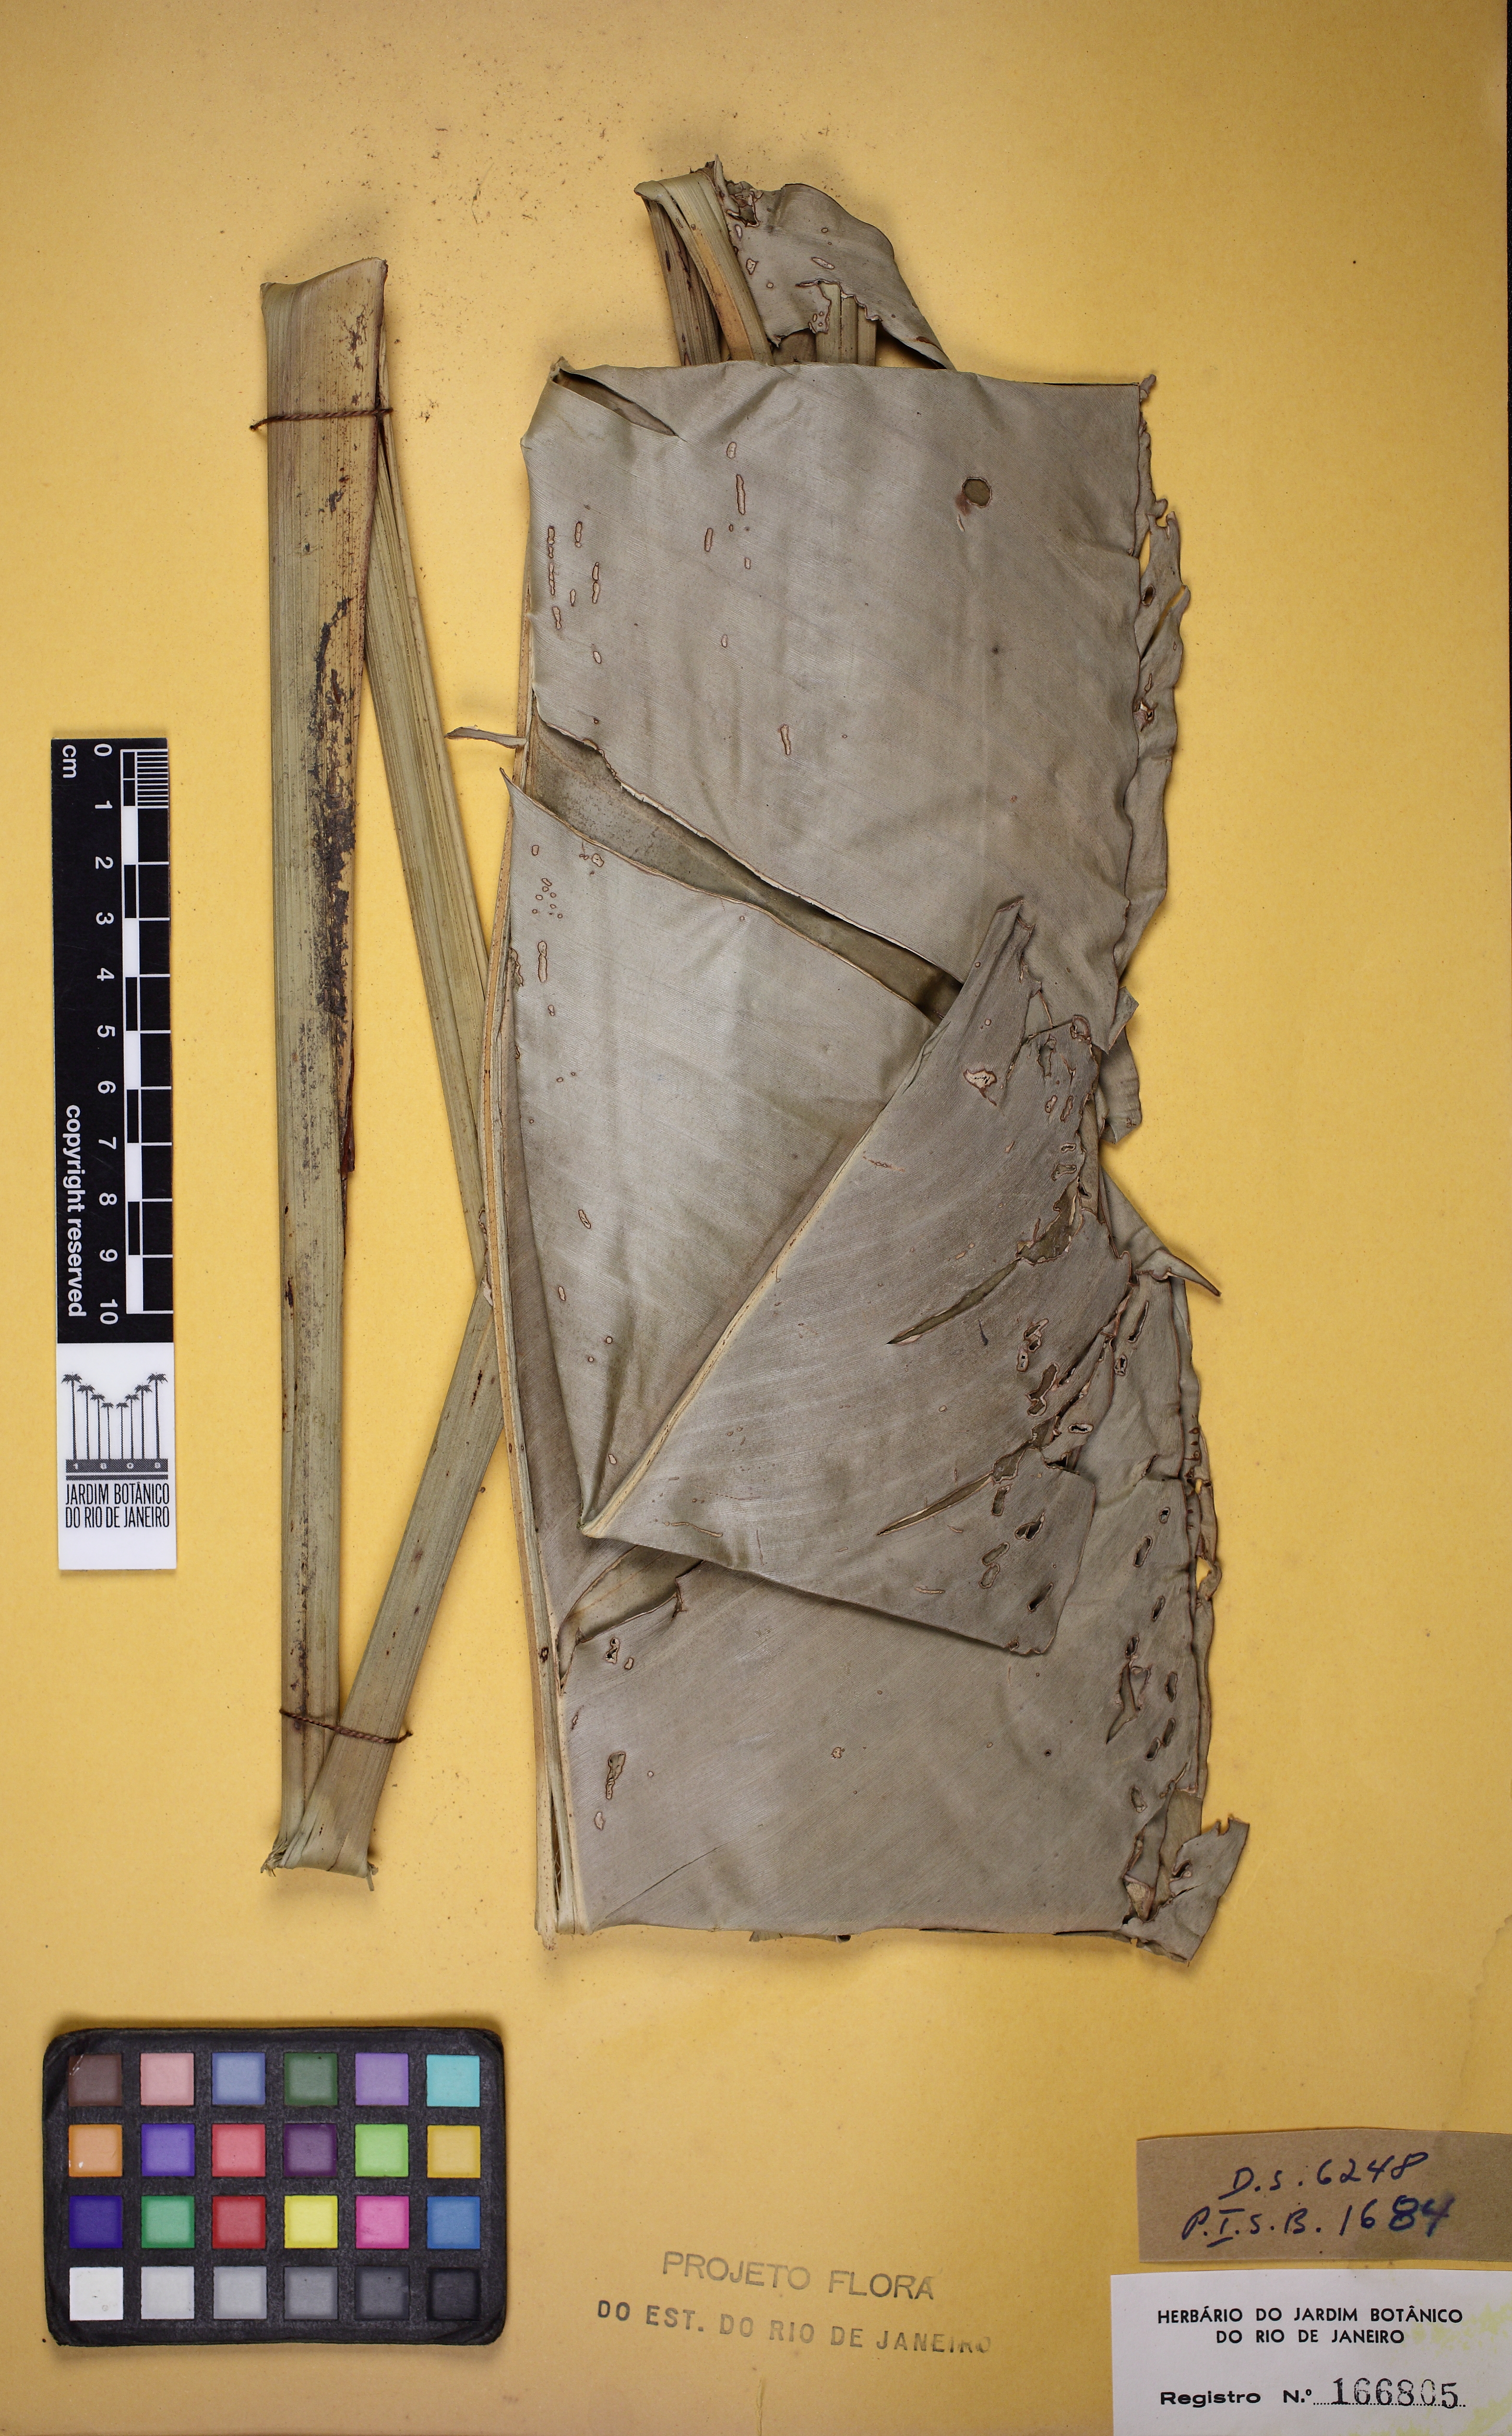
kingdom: Plantae
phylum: Tracheophyta
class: Liliopsida
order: Zingiberales
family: Heliconiaceae
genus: Heliconia
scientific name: Heliconia angusta
